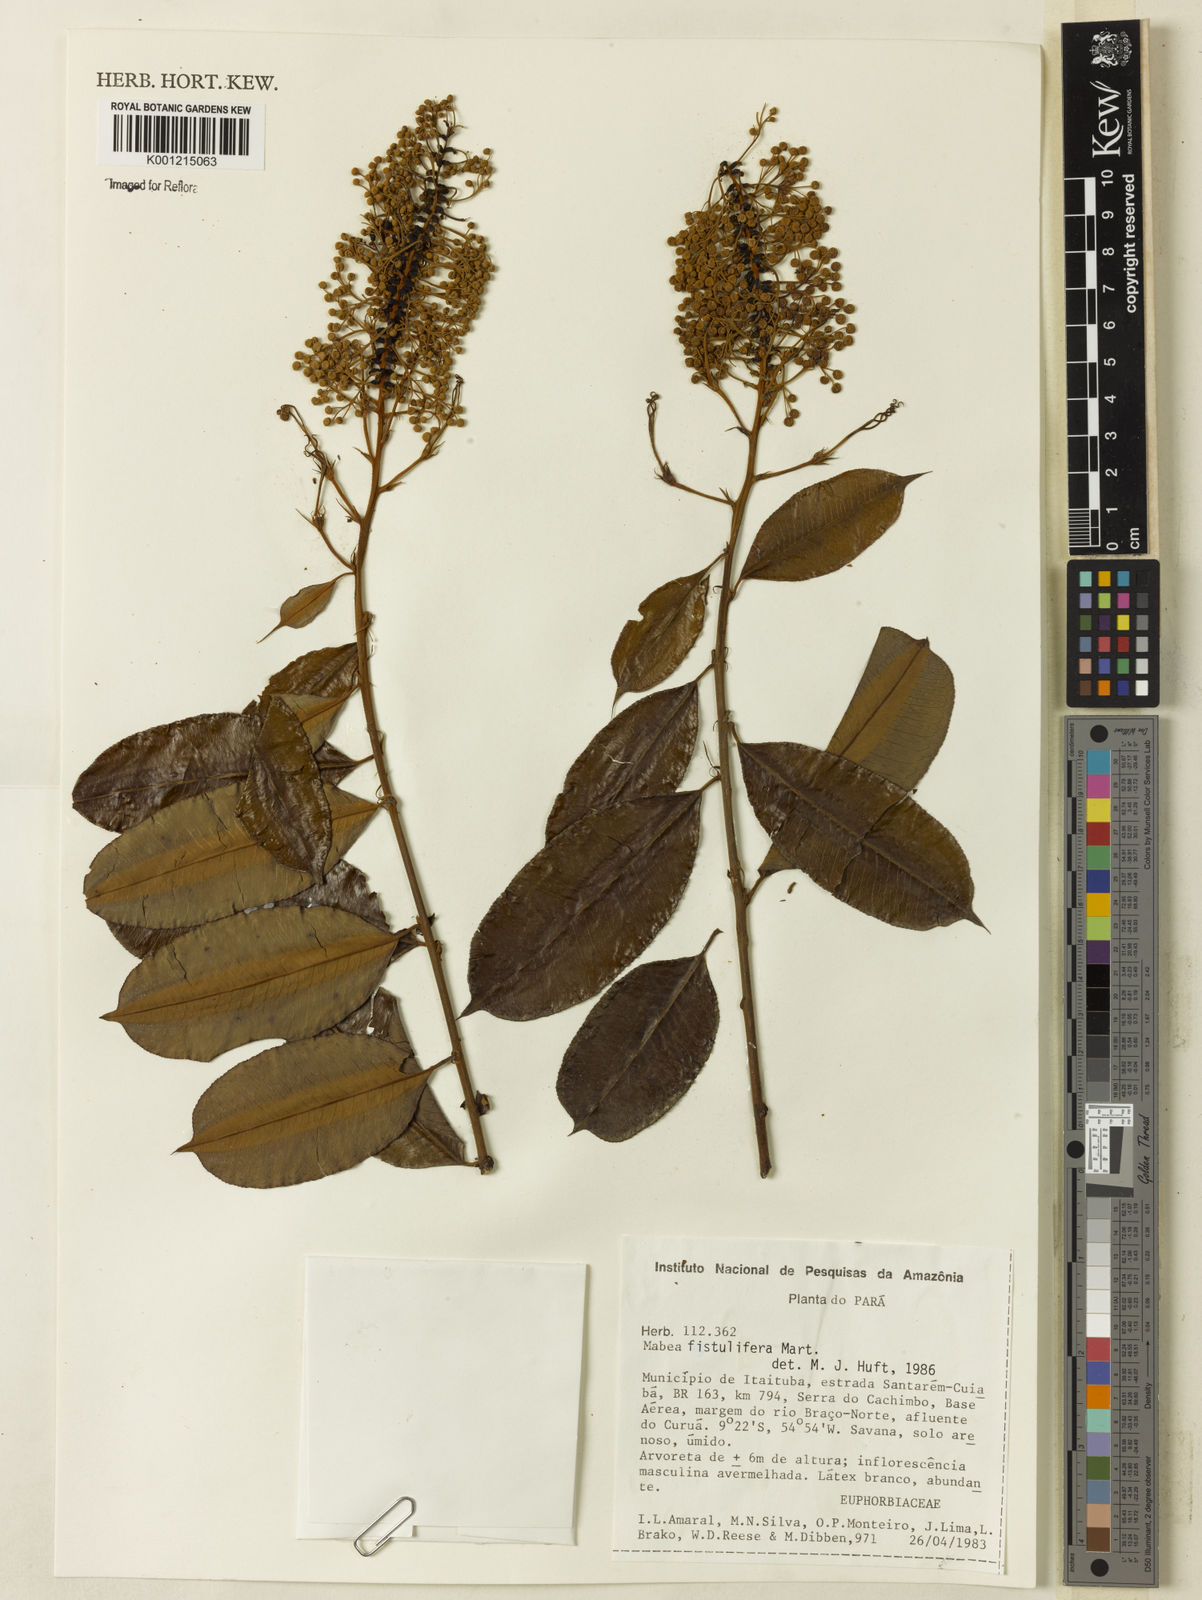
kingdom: Plantae
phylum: Tracheophyta
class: Magnoliopsida
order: Malpighiales
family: Euphorbiaceae
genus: Mabea
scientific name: Mabea fistulifera
